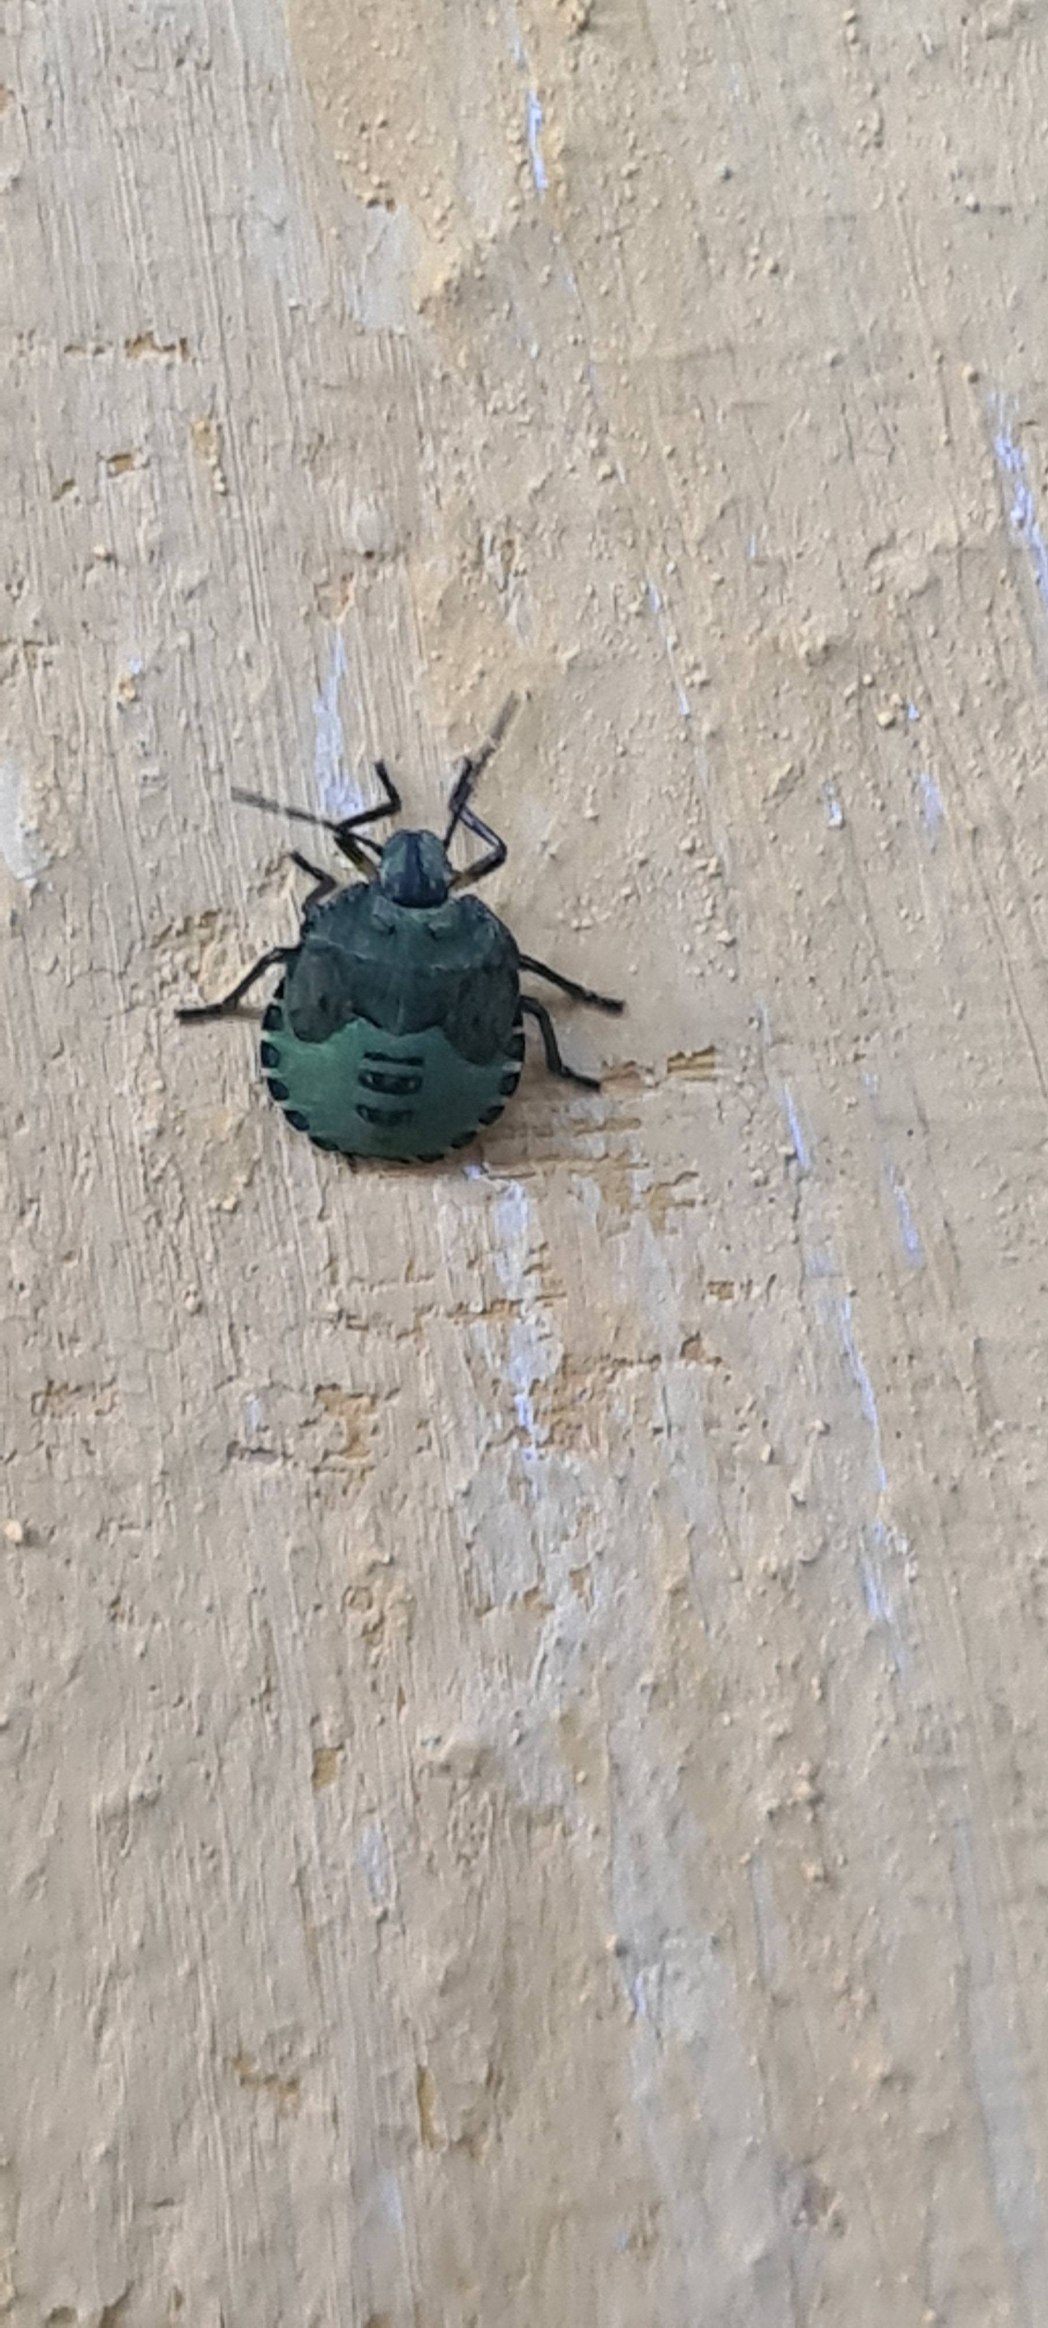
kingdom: Animalia
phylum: Arthropoda
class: Insecta
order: Hemiptera
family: Pentatomidae
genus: Palomena
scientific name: Palomena prasina
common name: Grøn bredtæge
